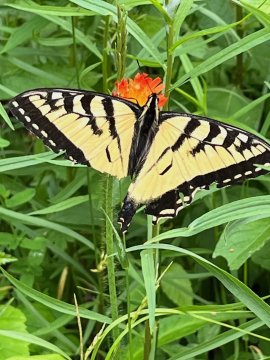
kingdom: Animalia
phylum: Arthropoda
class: Insecta
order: Lepidoptera
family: Papilionidae
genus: Pterourus
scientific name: Pterourus
